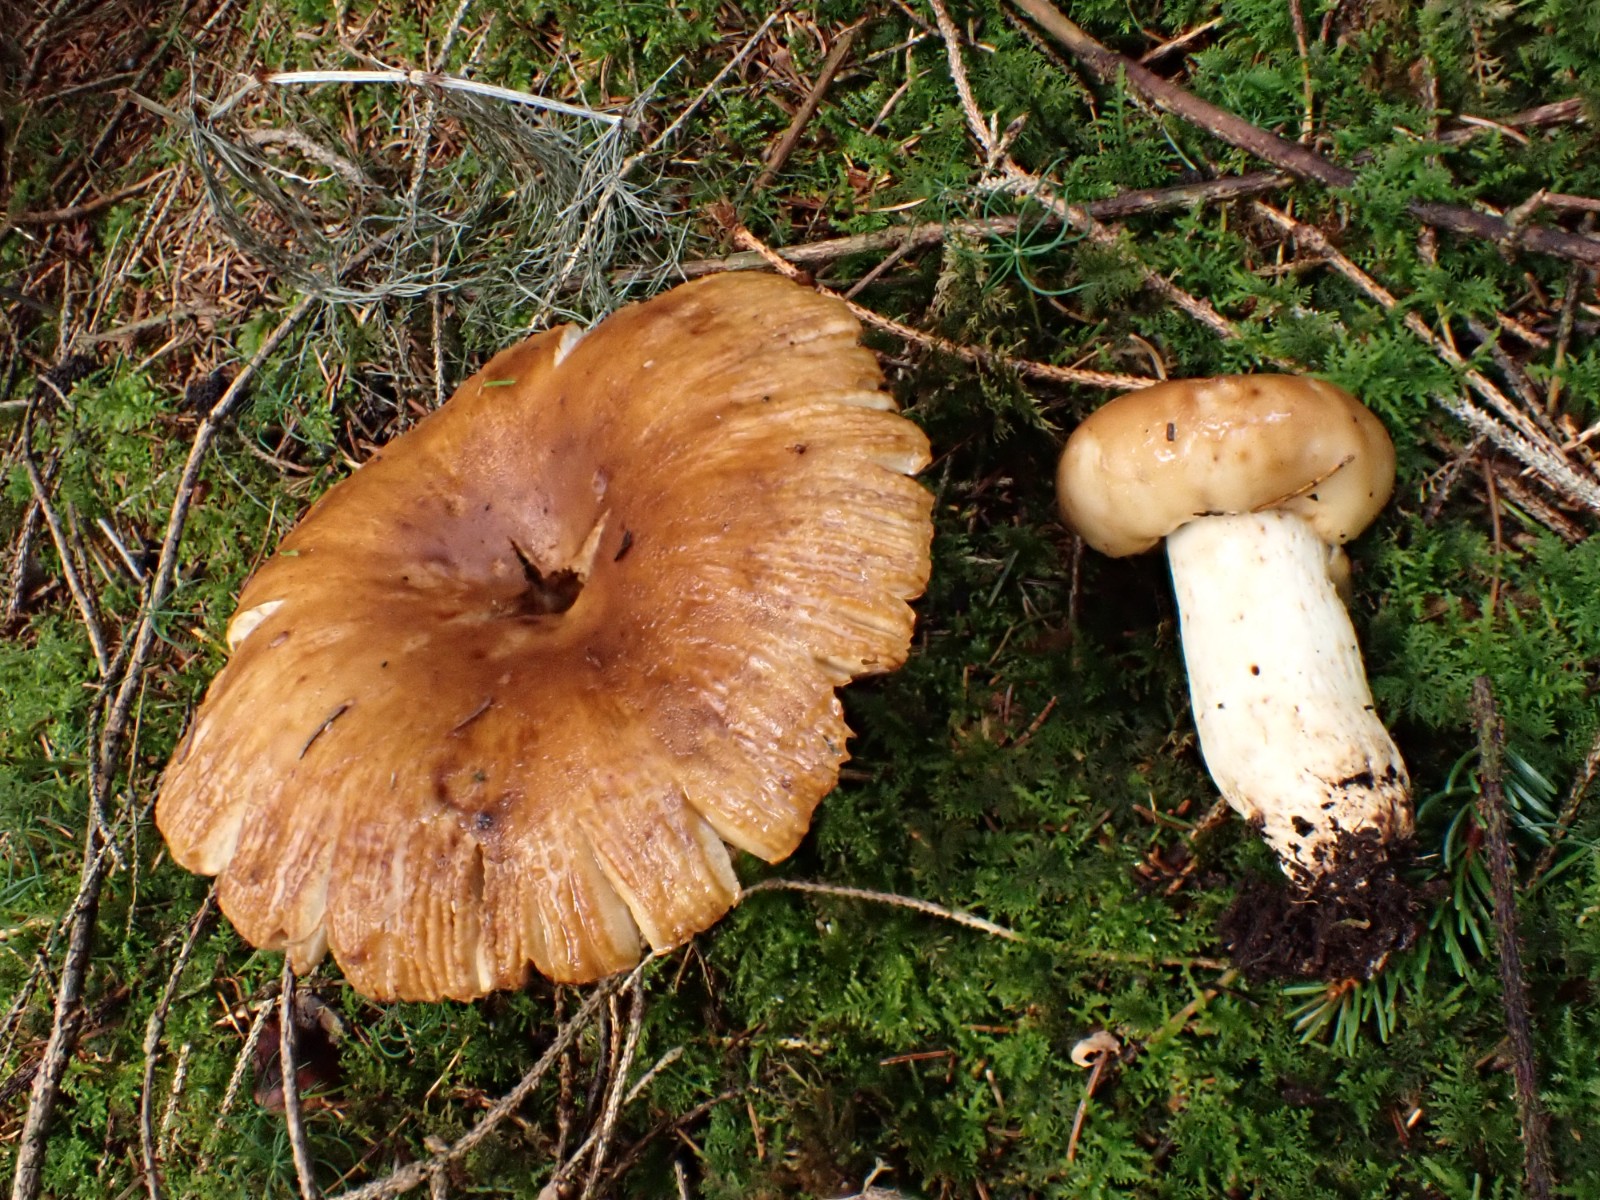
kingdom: Fungi
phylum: Basidiomycota
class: Agaricomycetes
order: Russulales
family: Russulaceae
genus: Russula
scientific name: Russula foetens
